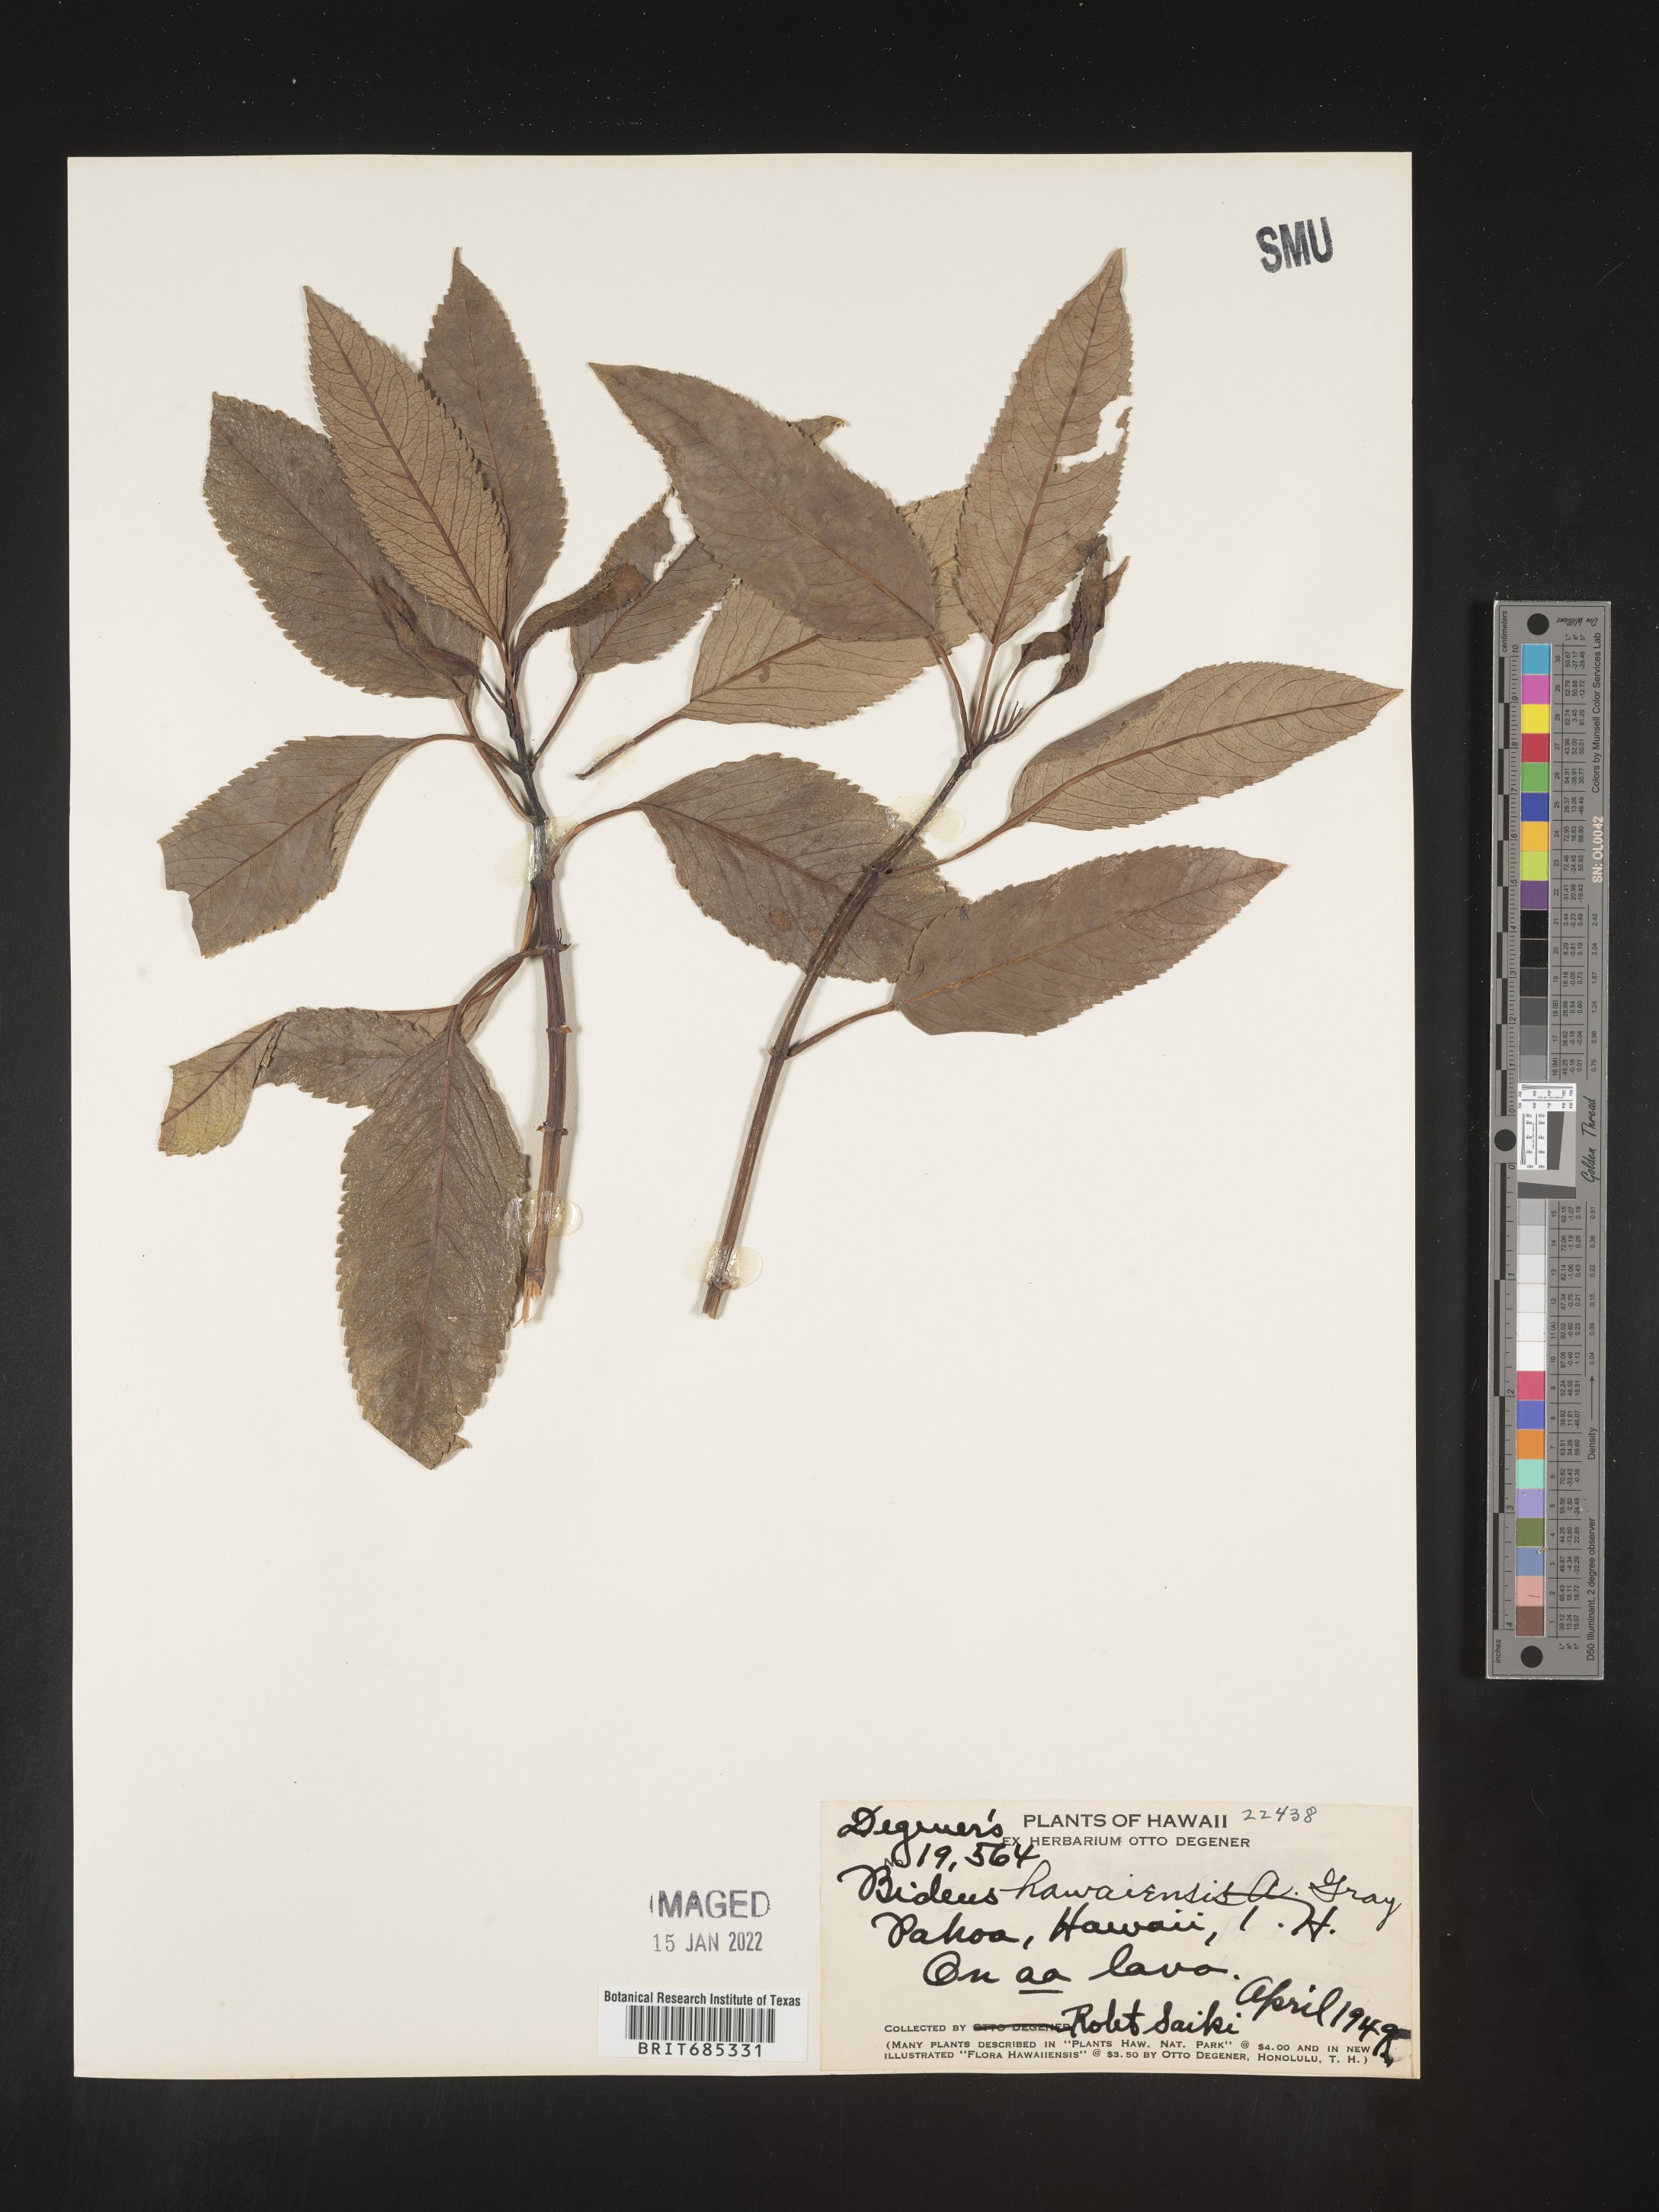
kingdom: Plantae
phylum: Tracheophyta
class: Magnoliopsida
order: Asterales
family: Asteraceae
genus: Bidens
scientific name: Bidens
